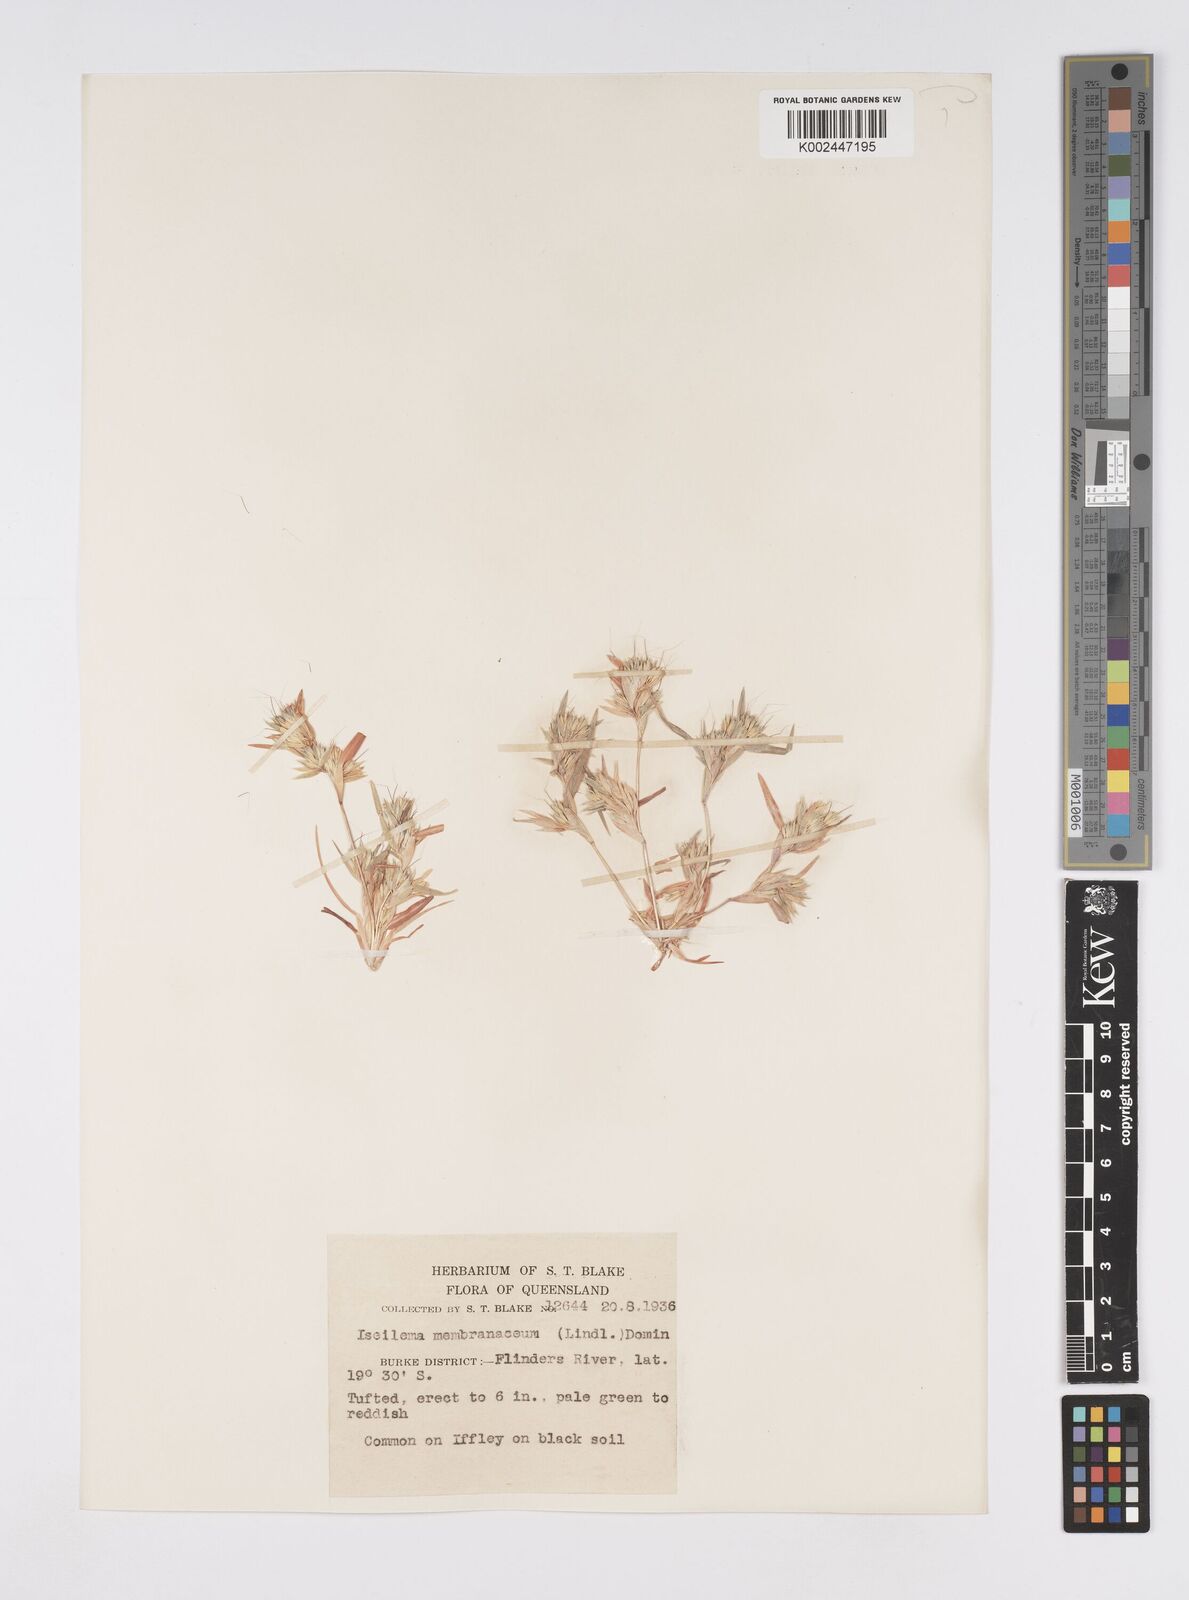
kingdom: Plantae
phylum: Tracheophyta
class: Liliopsida
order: Poales
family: Poaceae
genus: Iseilema
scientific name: Iseilema membranaceum
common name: Small flinders grass
